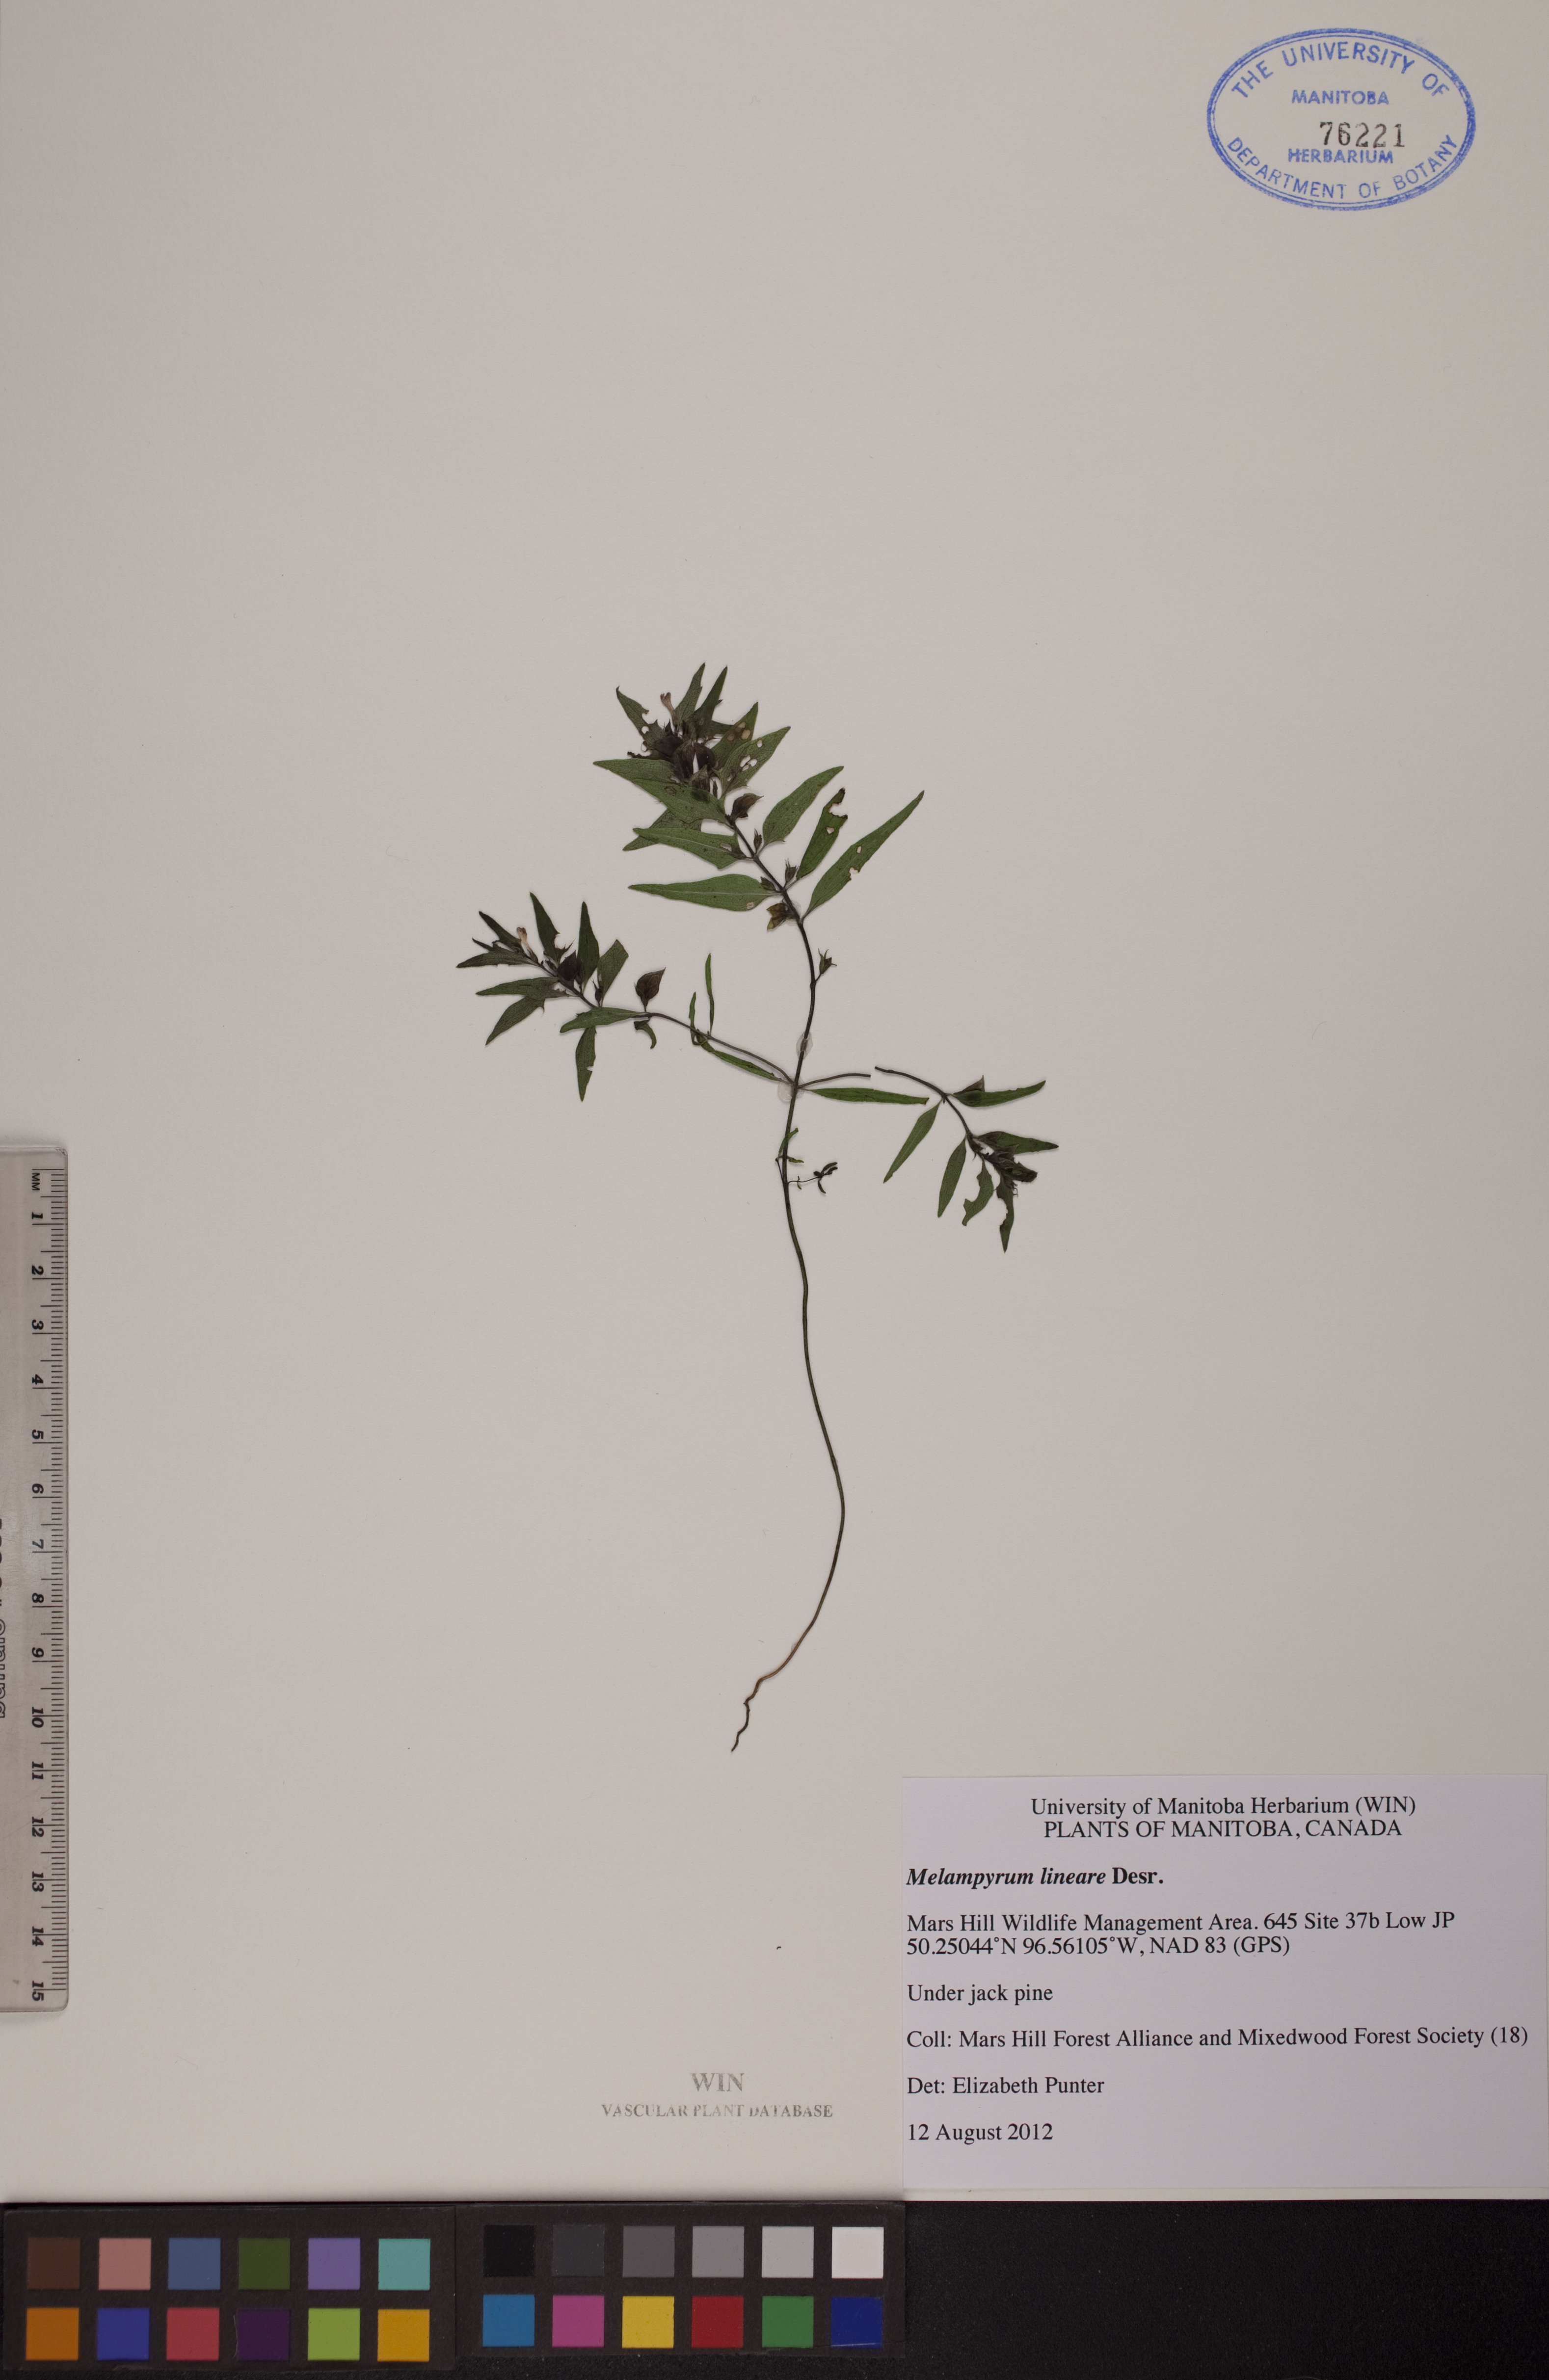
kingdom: Plantae
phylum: Tracheophyta
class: Magnoliopsida
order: Lamiales
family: Orobanchaceae
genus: Melampyrum
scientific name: Melampyrum lineare
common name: American cow-wheat
